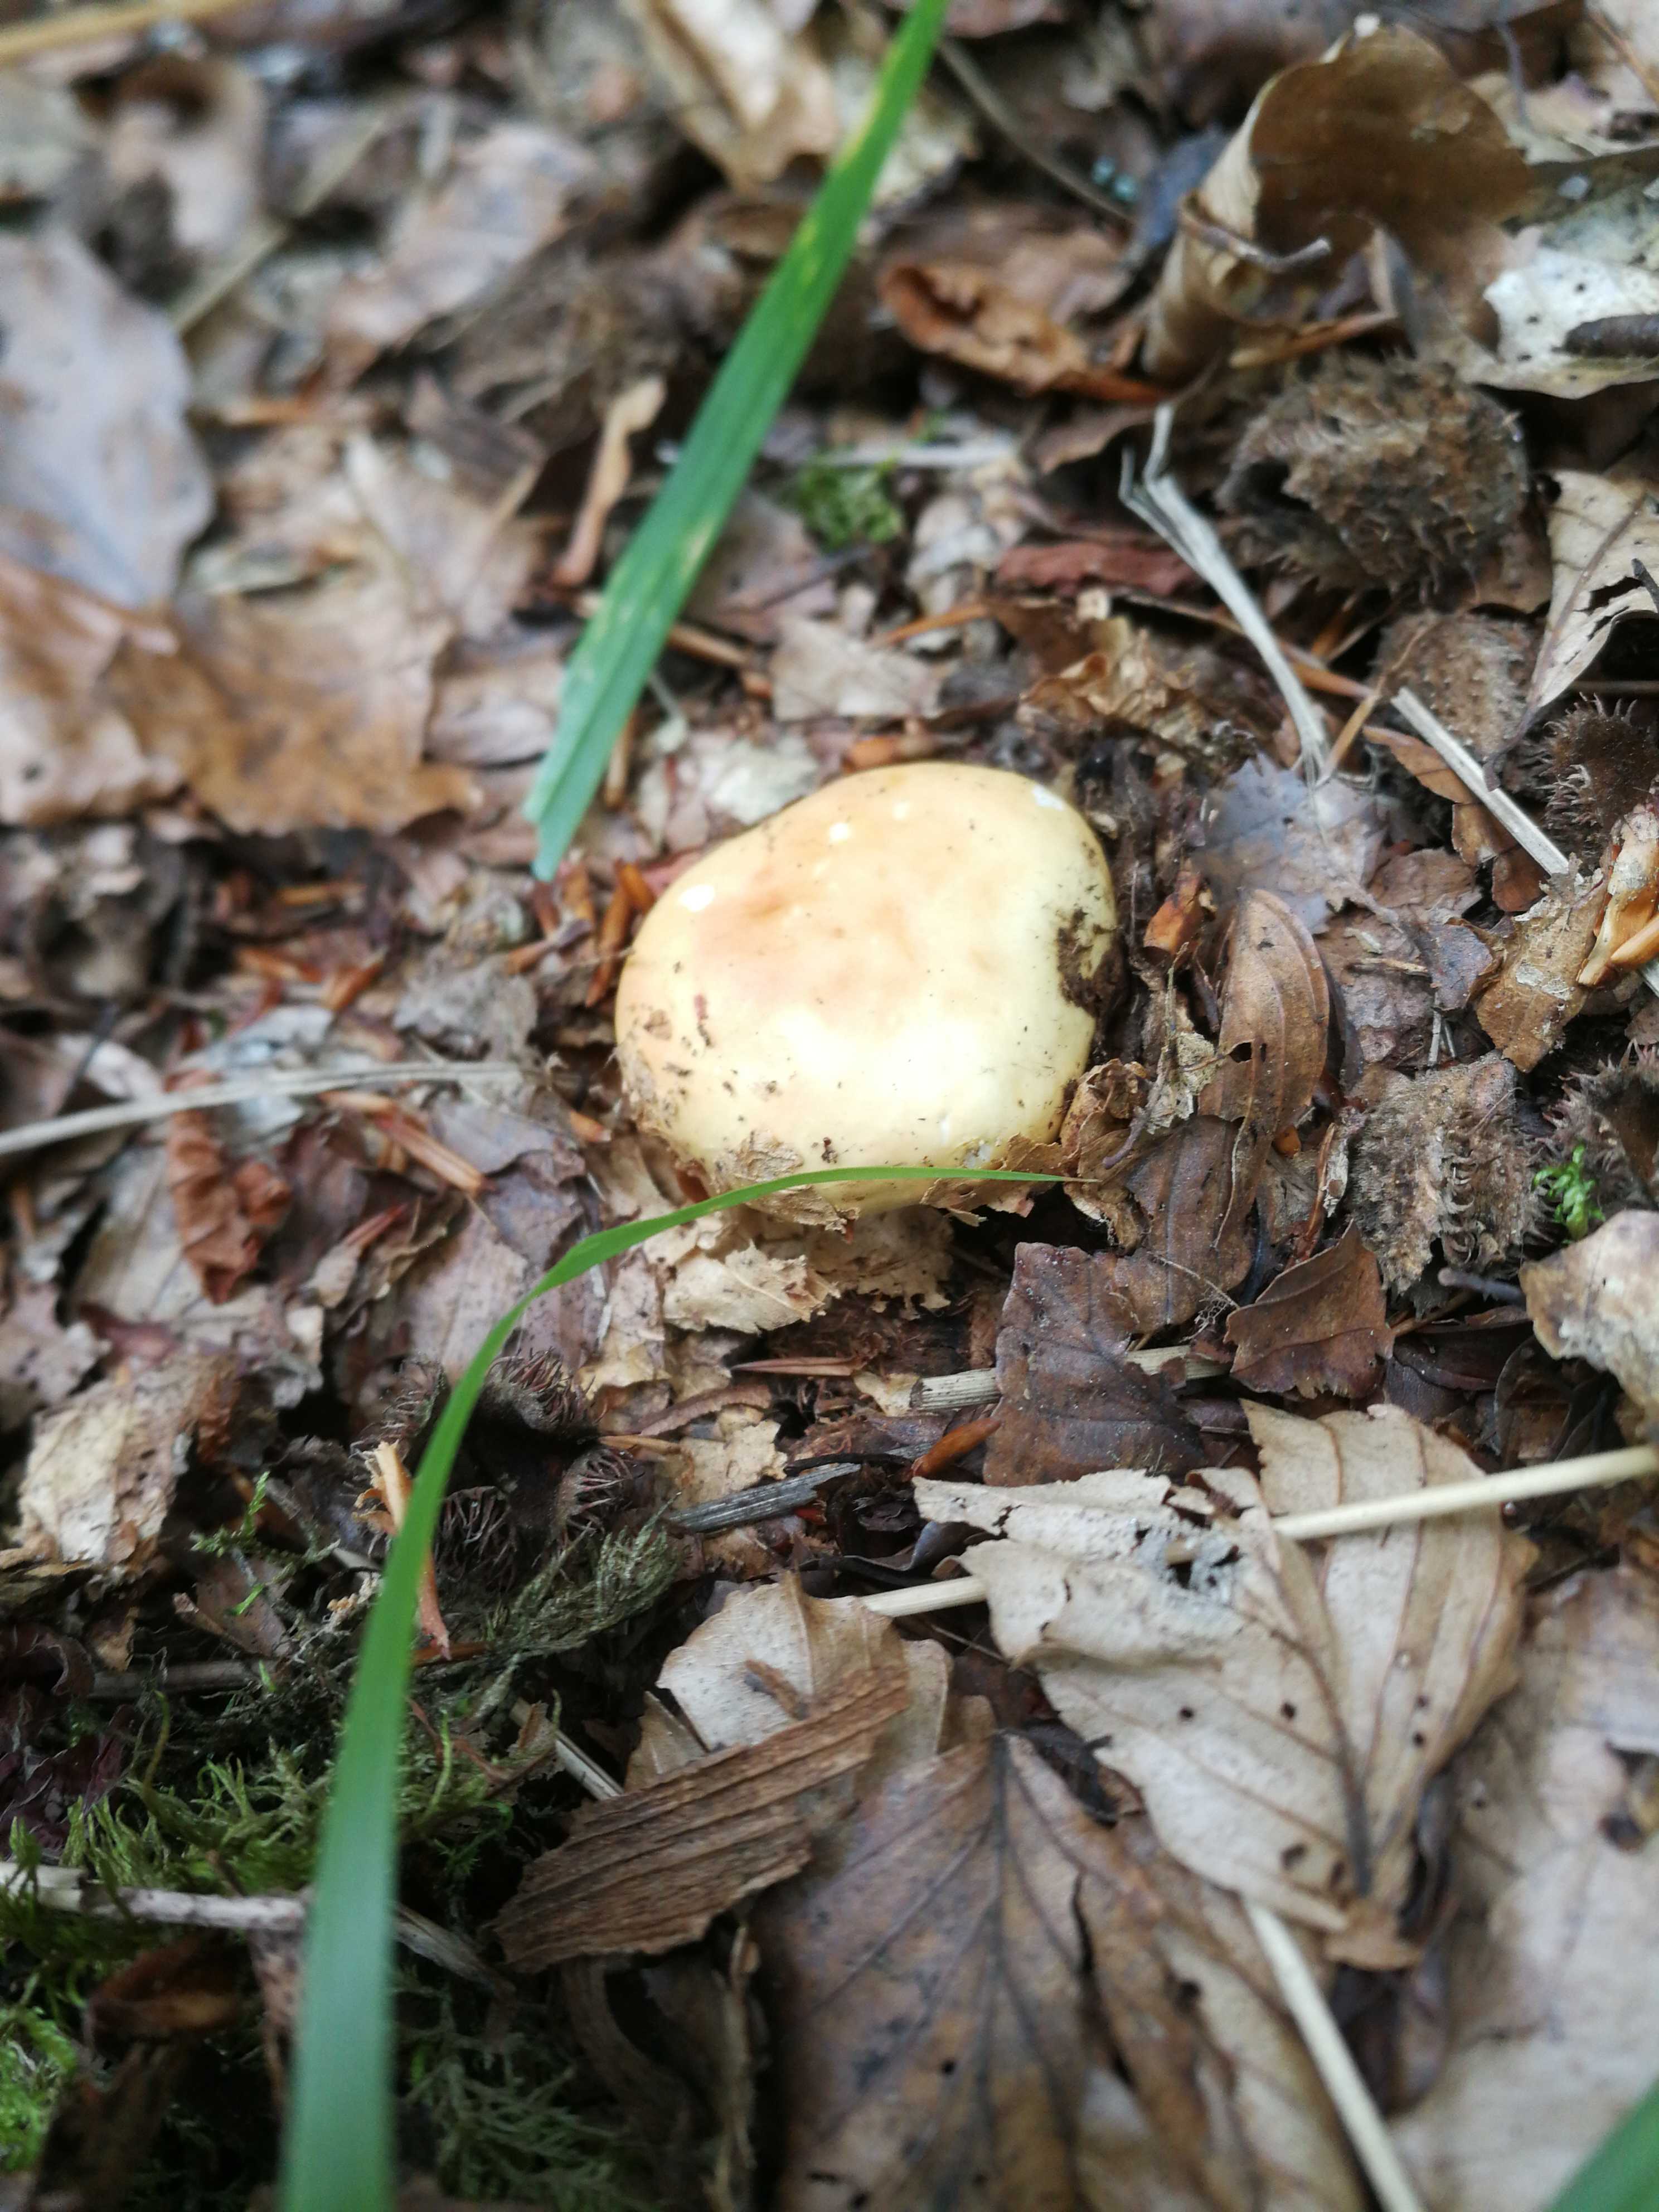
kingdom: Fungi
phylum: Basidiomycota
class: Agaricomycetes
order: Russulales
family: Russulaceae
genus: Russula
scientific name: Russula
